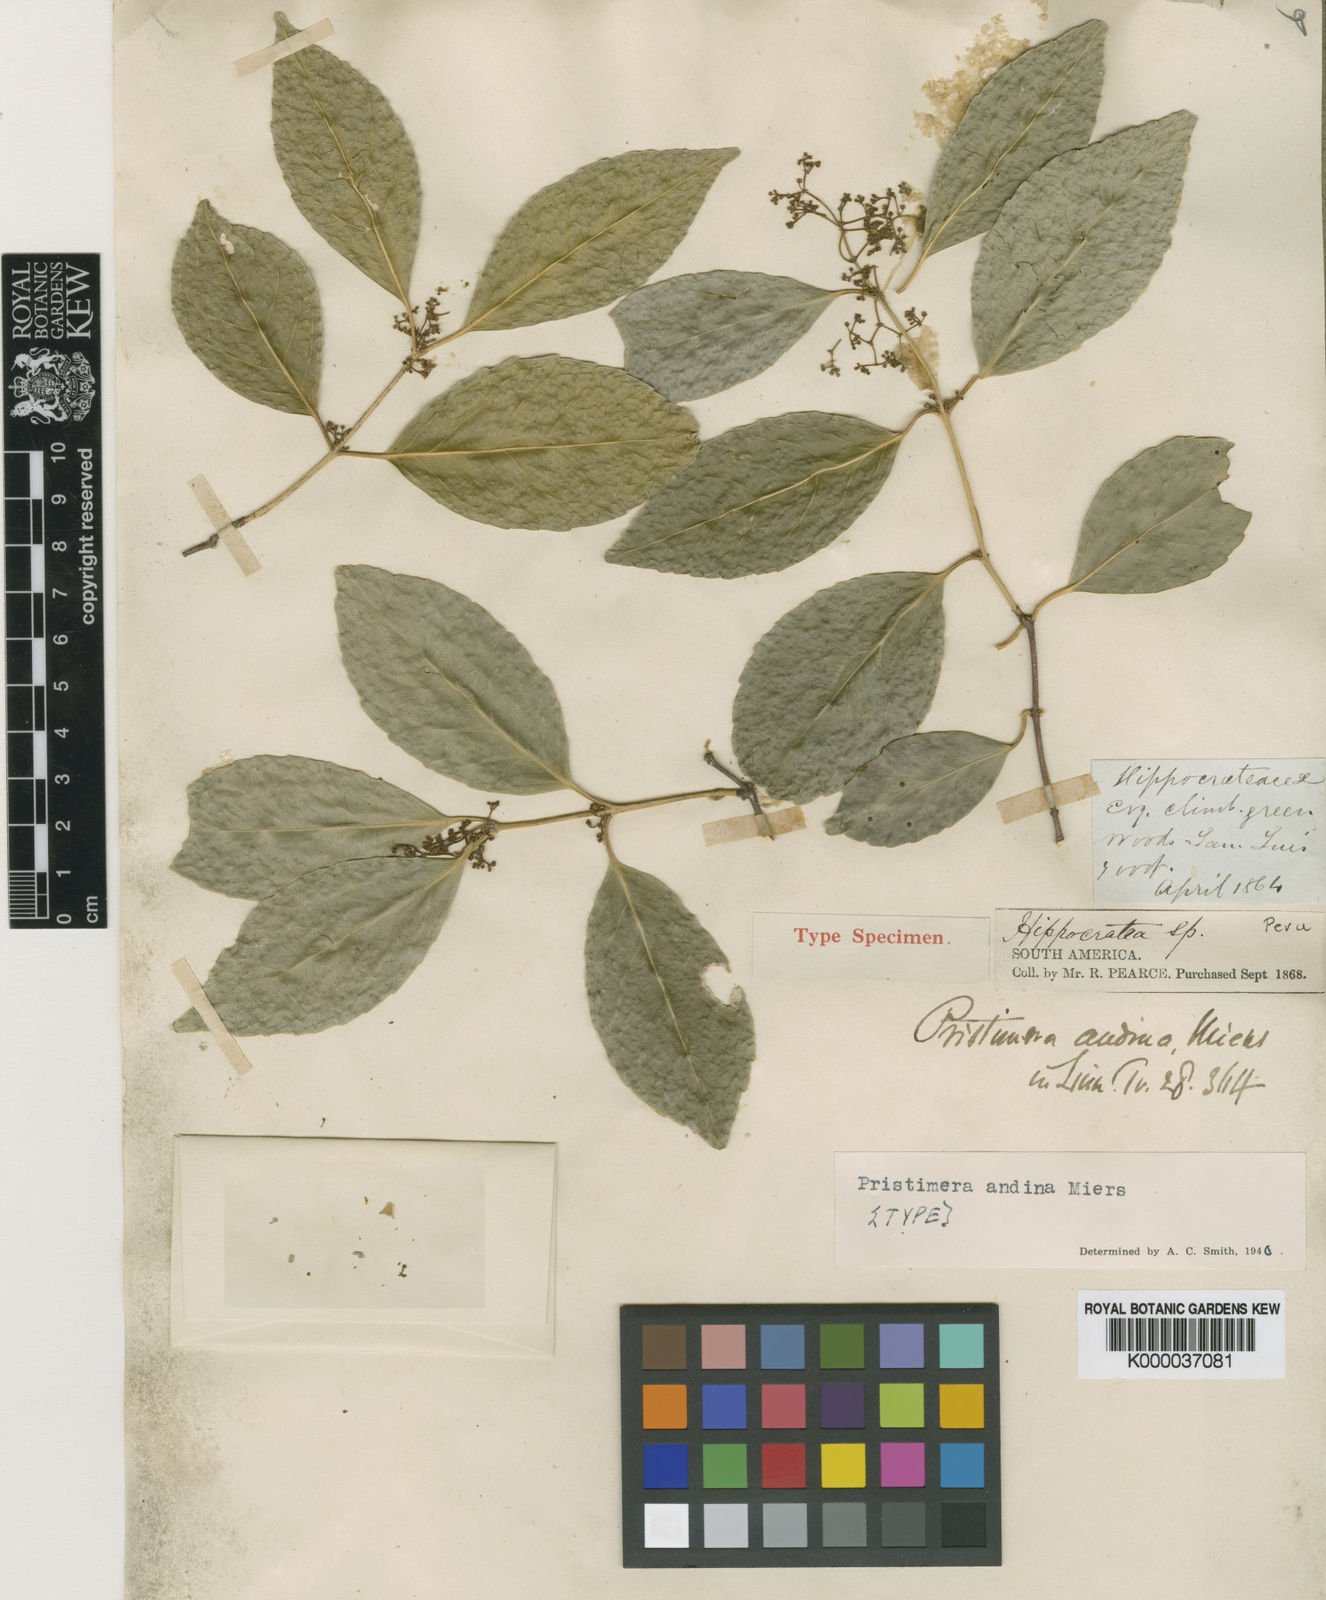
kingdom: Plantae
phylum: Tracheophyta
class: Magnoliopsida
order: Celastrales
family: Celastraceae
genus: Pristimera
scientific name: Pristimera celastroides
